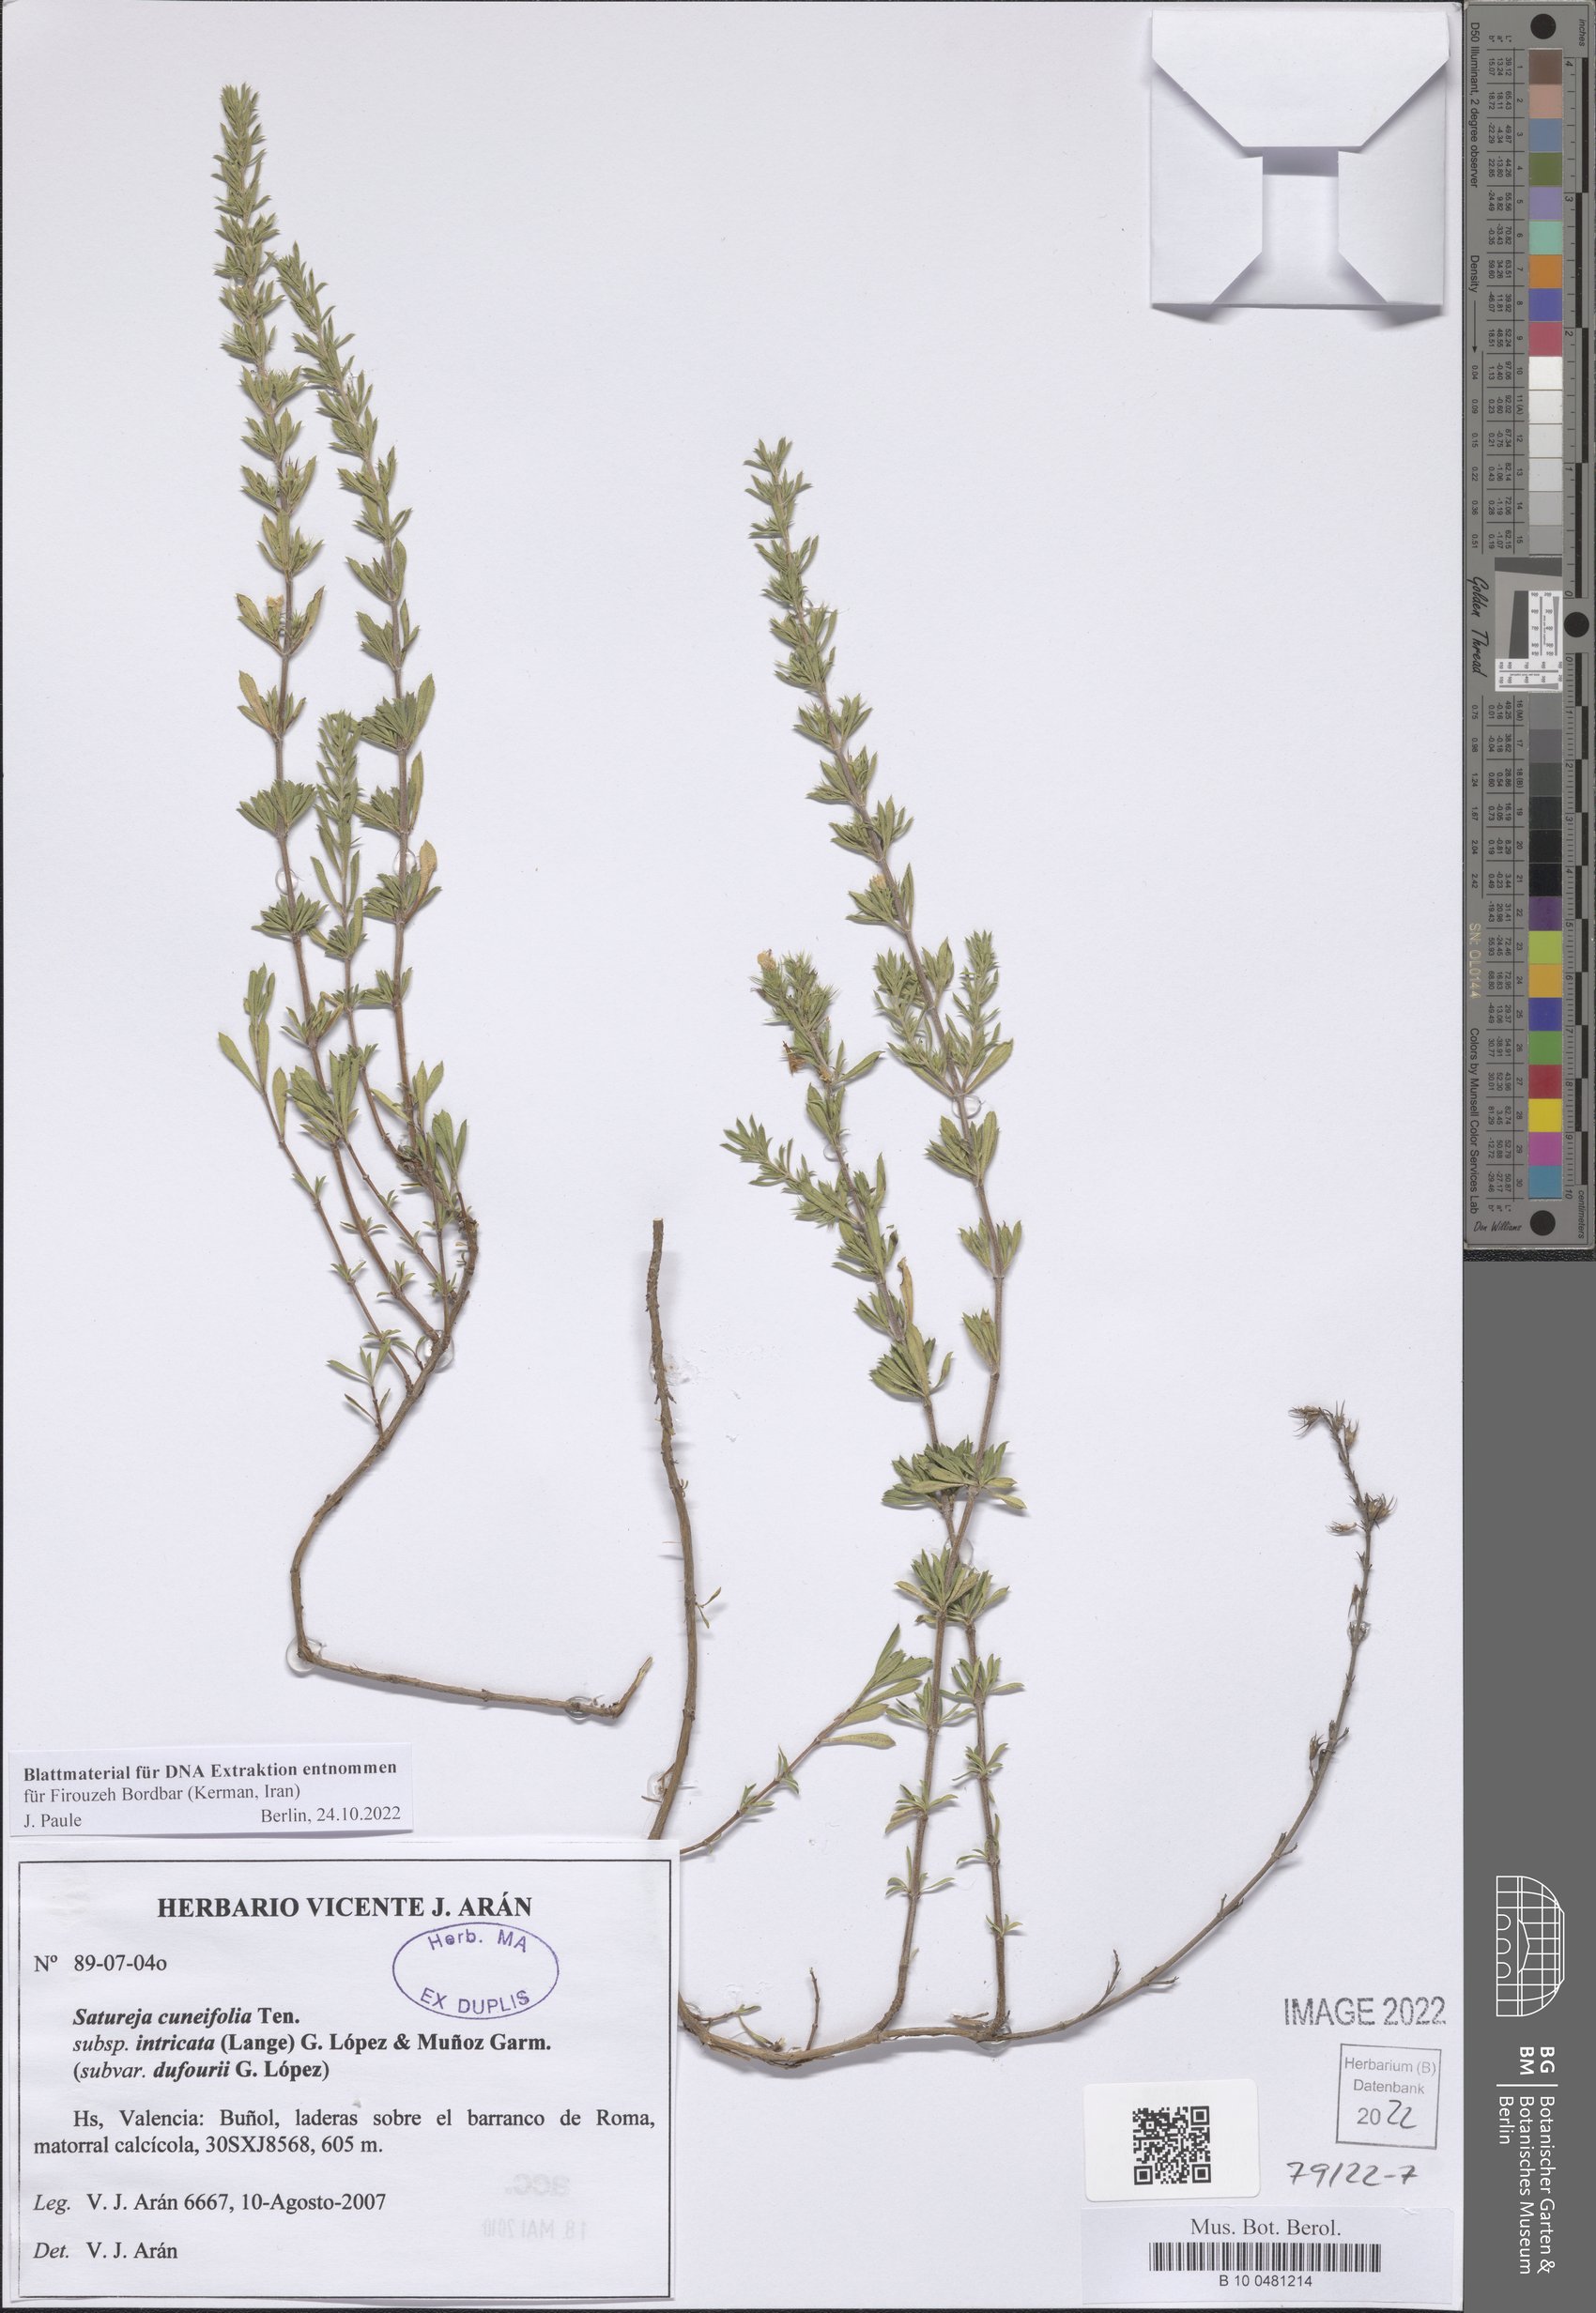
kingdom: Plantae
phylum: Tracheophyta
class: Magnoliopsida
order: Lamiales
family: Lamiaceae
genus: Satureja
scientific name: Satureja cuneifolia
